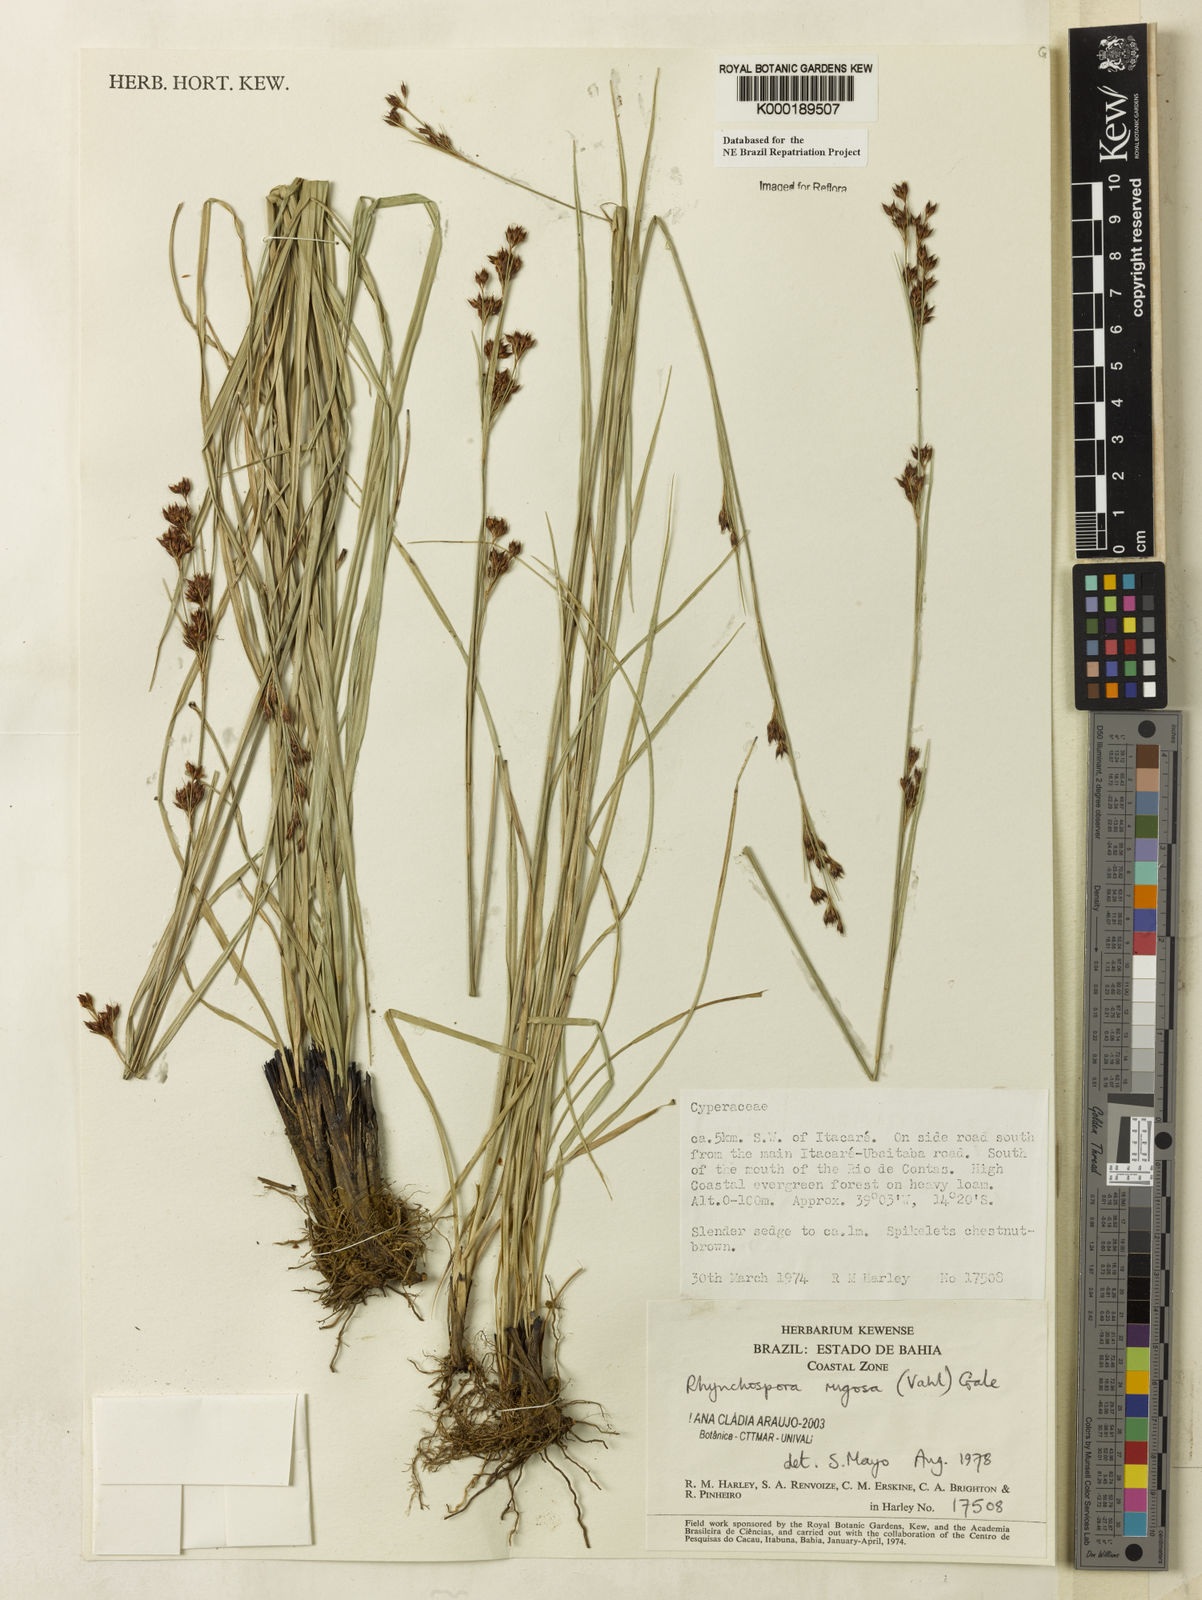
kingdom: Plantae
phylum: Tracheophyta
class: Liliopsida
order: Poales
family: Cyperaceae
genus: Rhynchospora
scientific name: Rhynchospora rugosa
